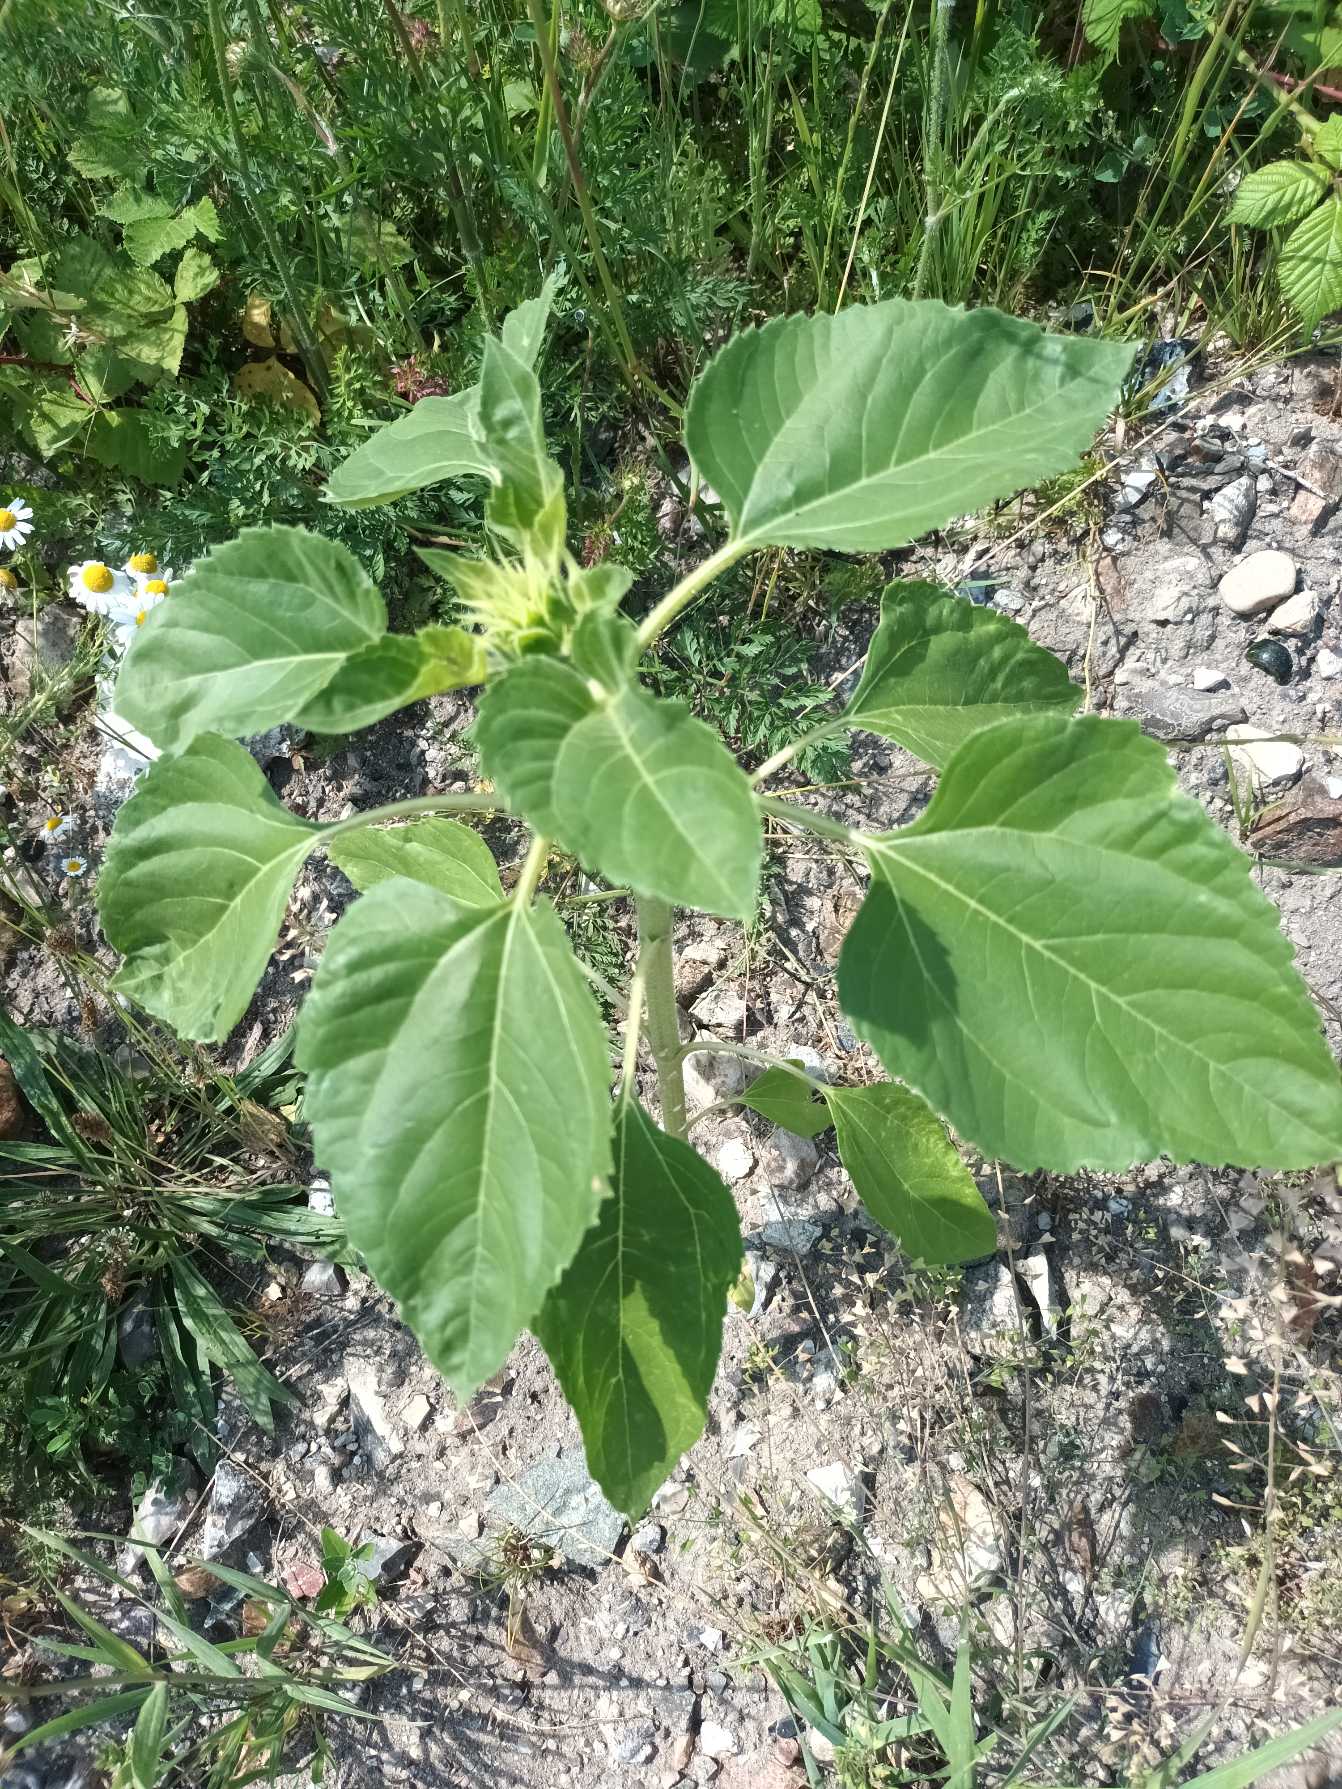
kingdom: Plantae
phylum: Tracheophyta
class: Magnoliopsida
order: Asterales
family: Asteraceae
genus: Helianthus
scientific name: Helianthus annuus
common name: Solsikke
